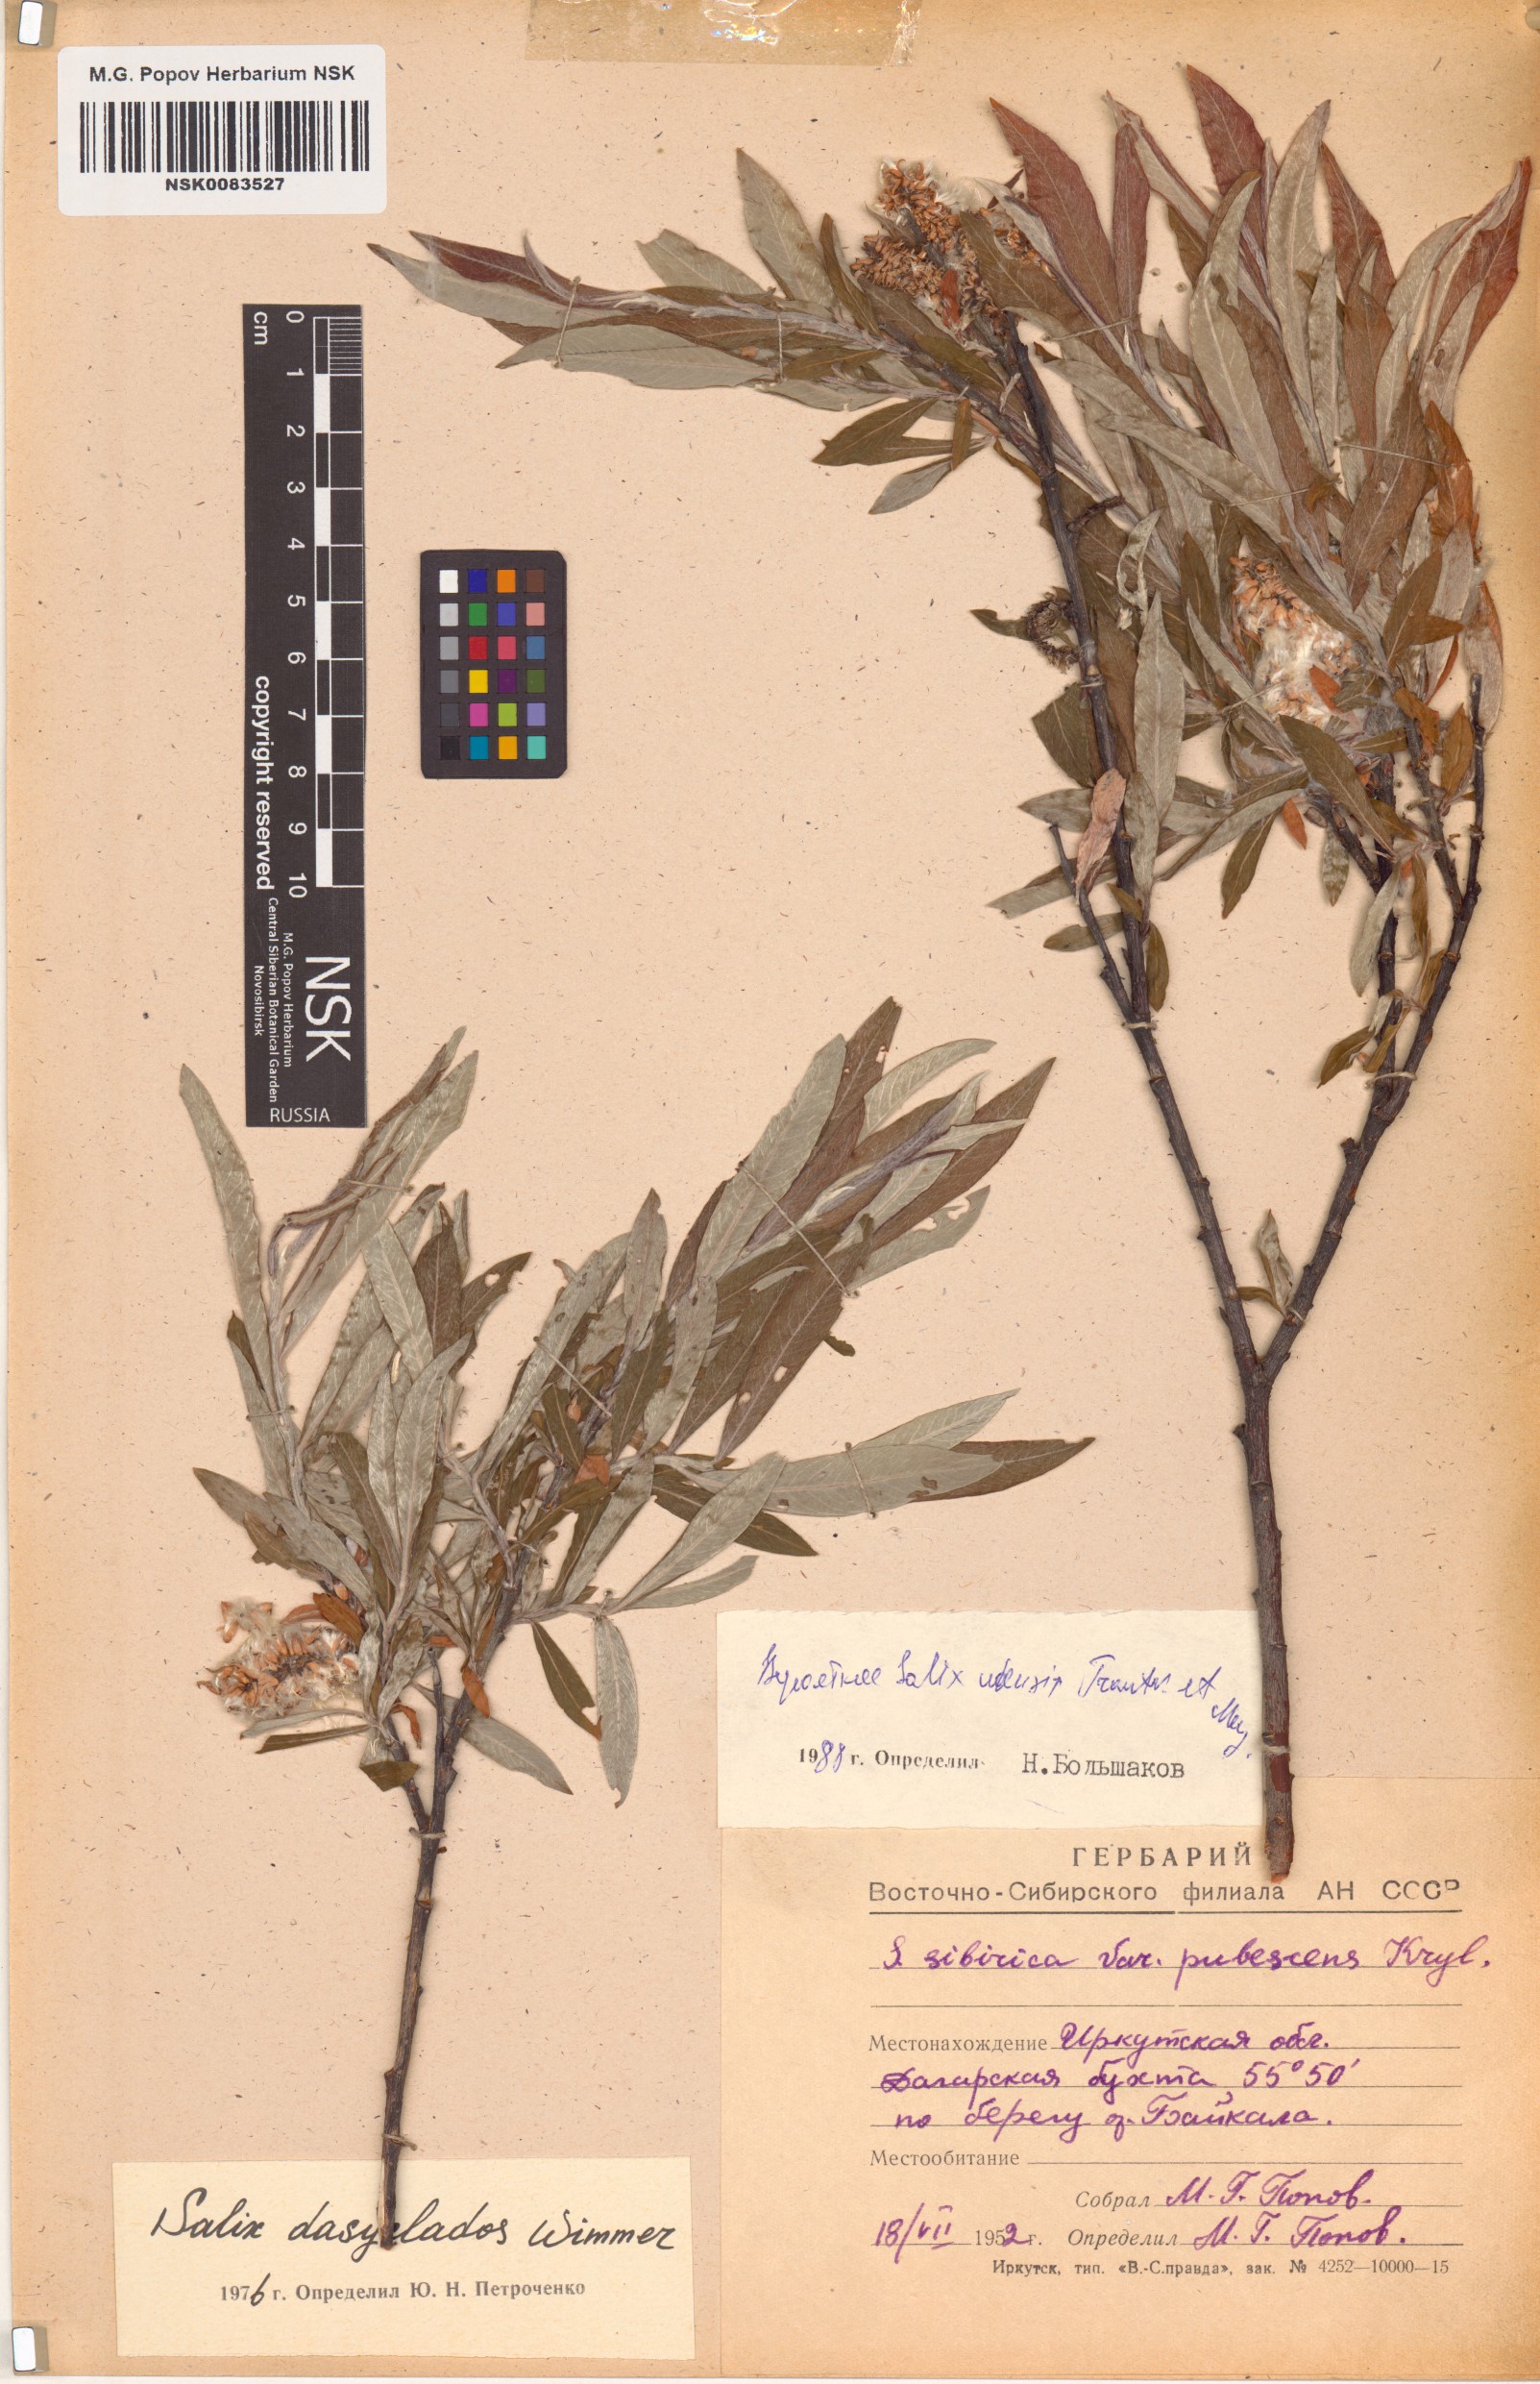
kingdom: Plantae
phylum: Tracheophyta
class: Magnoliopsida
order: Malpighiales
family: Salicaceae
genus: Salix
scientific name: Salix udensis
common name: Sachalin willow
